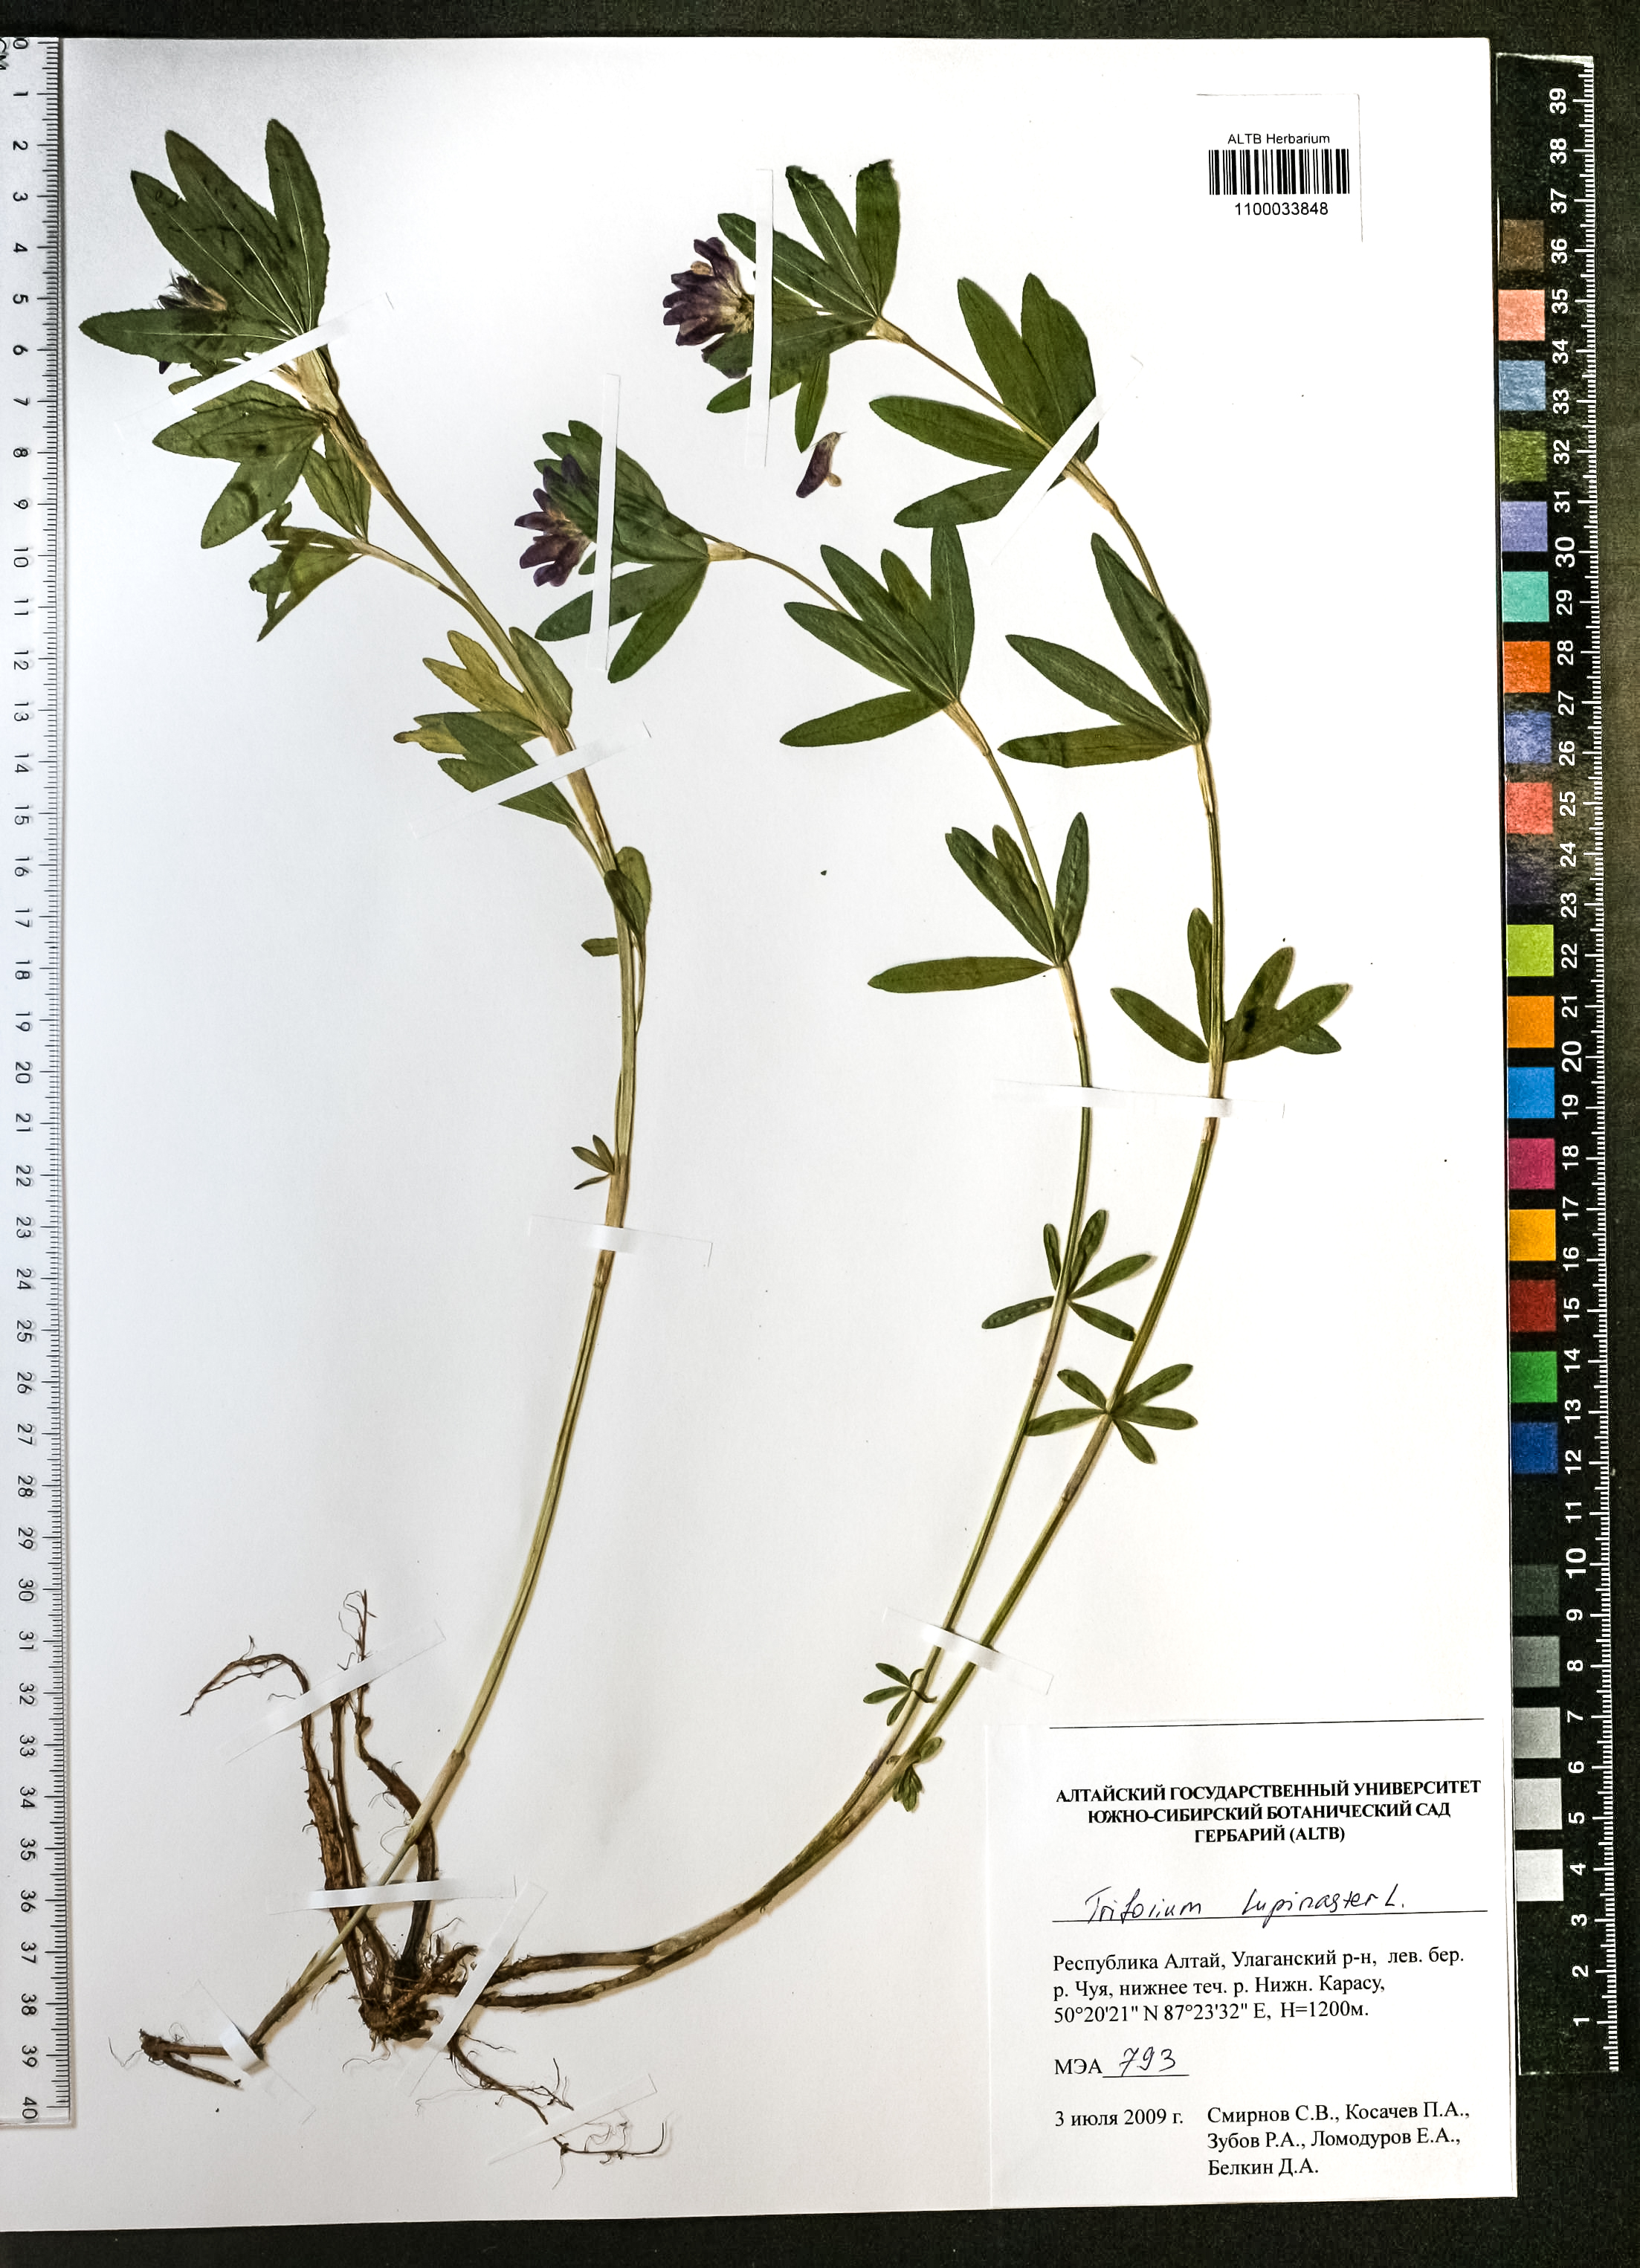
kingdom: Plantae
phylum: Tracheophyta
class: Magnoliopsida
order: Fabales
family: Fabaceae
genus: Trifolium
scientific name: Trifolium lupinaster
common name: Lupine clover
